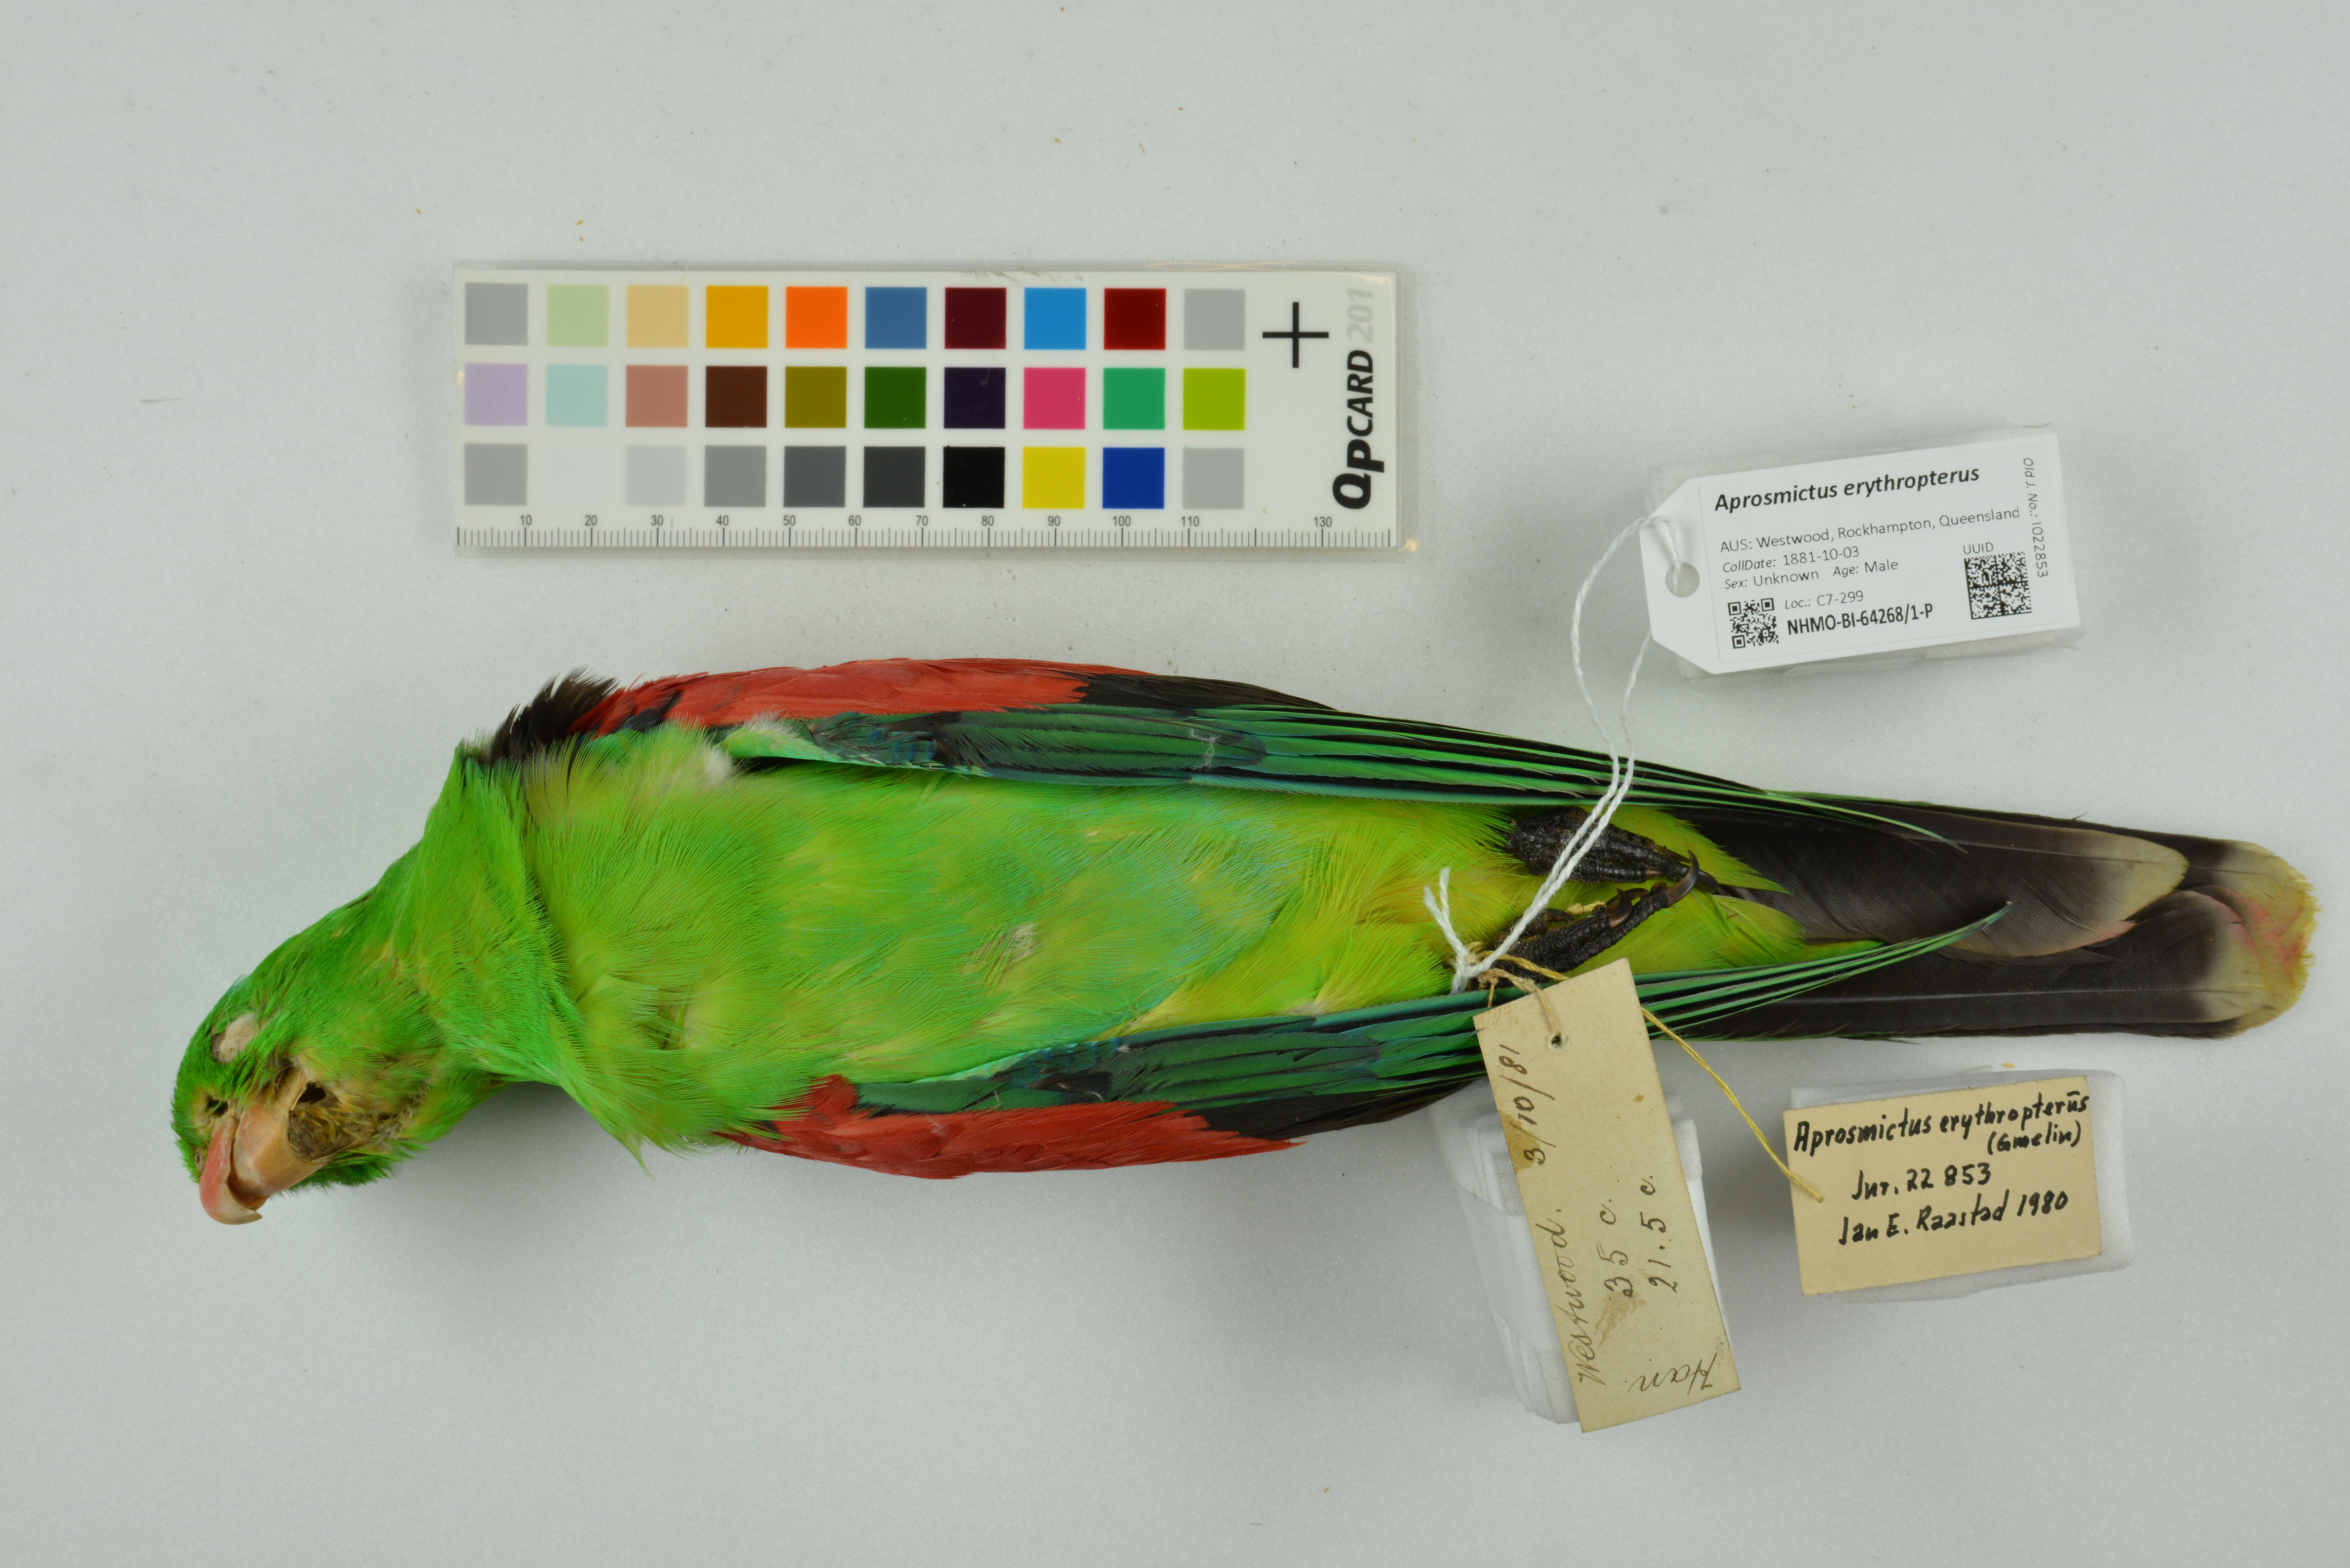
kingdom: Animalia
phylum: Chordata
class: Aves
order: Psittaciformes
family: Psittacidae
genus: Aprosmictus
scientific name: Aprosmictus erythropterus
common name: Red-winged parrot
